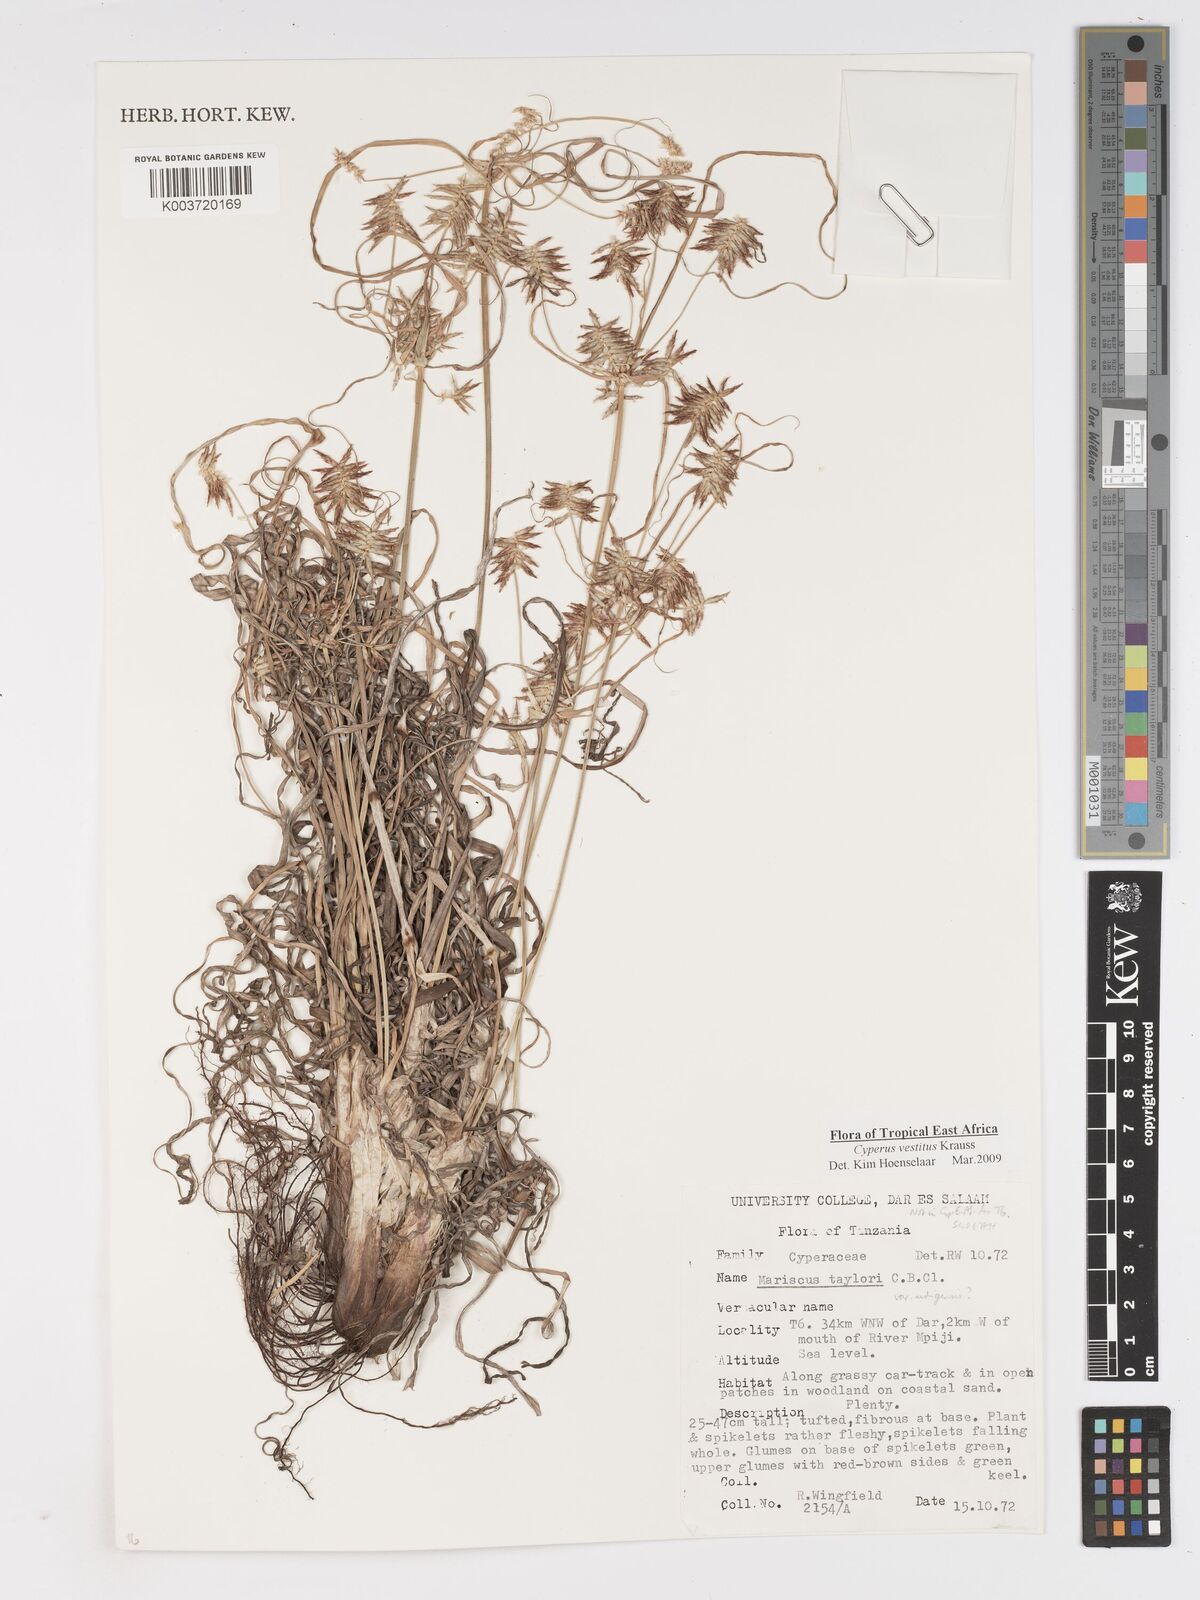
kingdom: Plantae
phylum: Tracheophyta
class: Liliopsida
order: Poales
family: Cyperaceae
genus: Cyperus
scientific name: Cyperus vestitus
